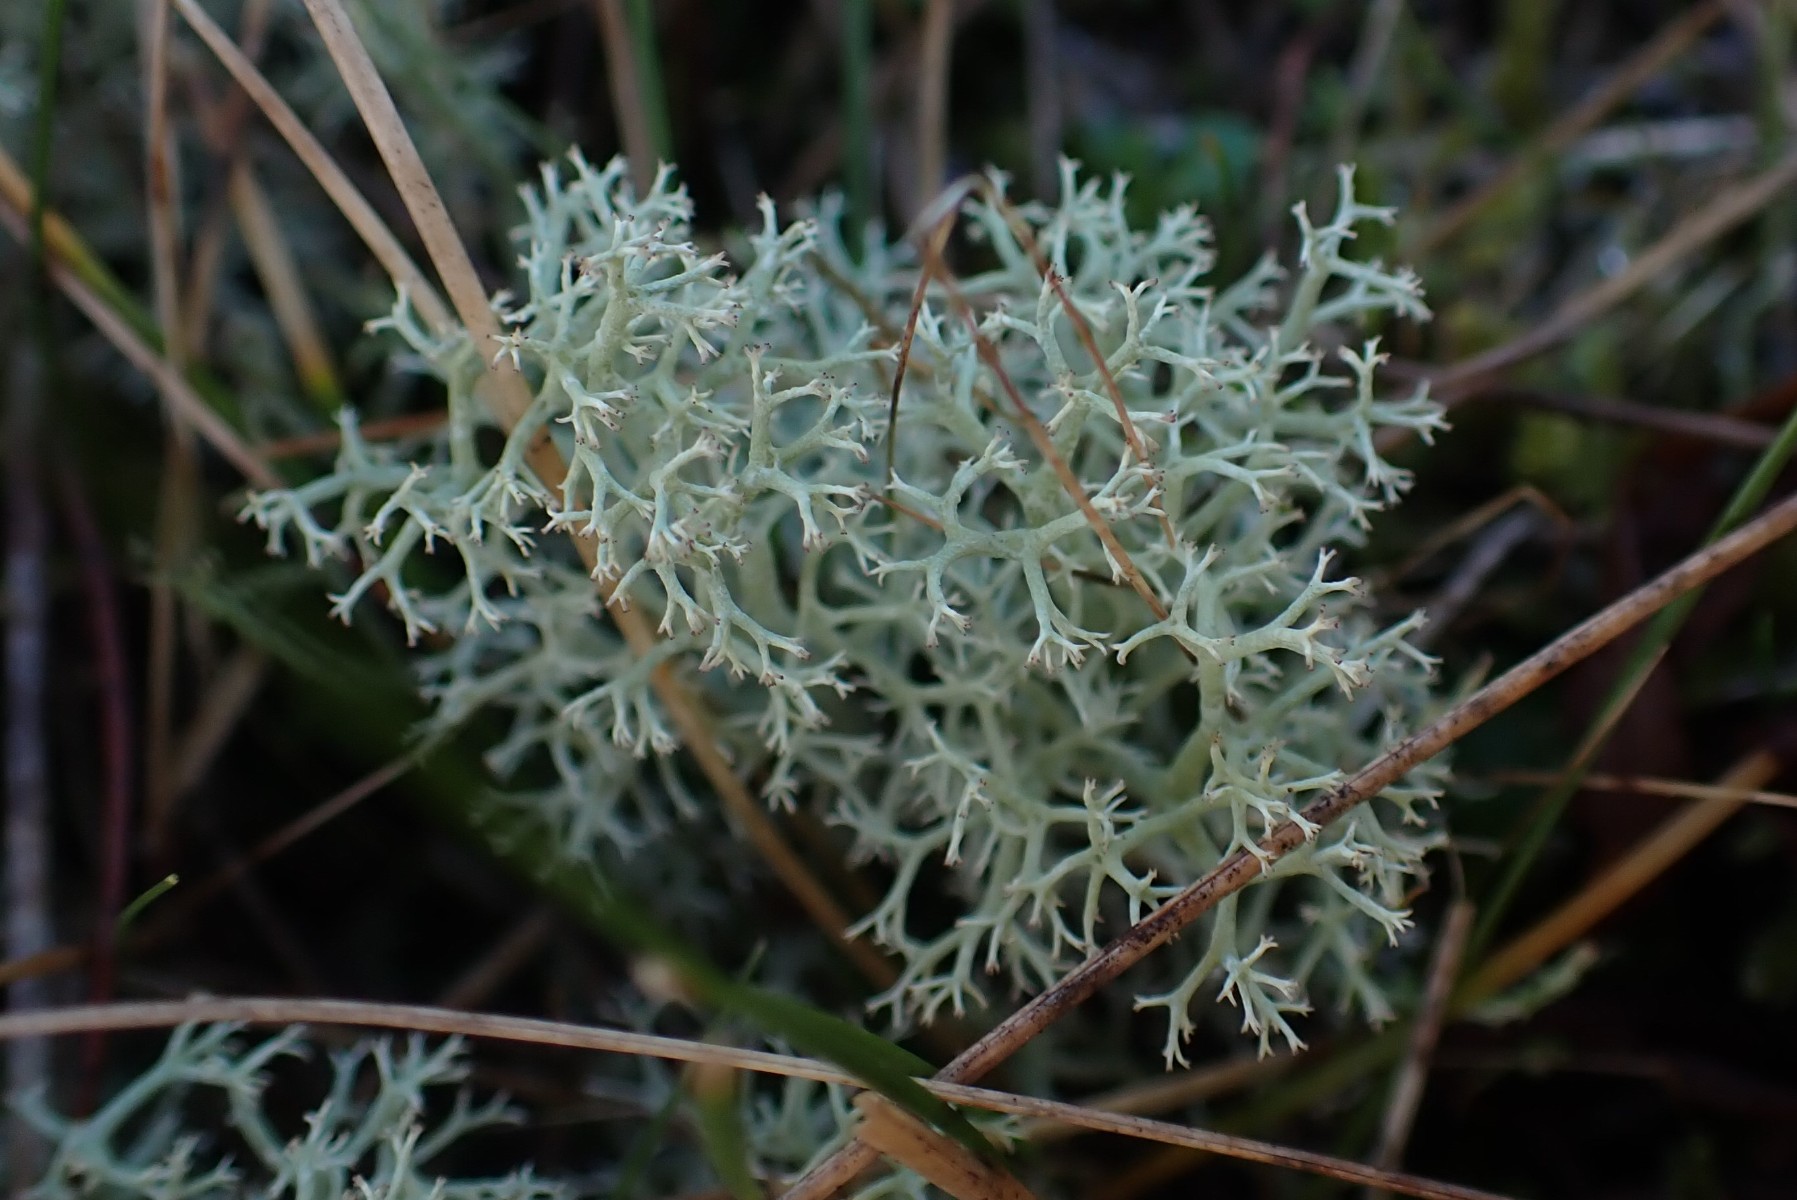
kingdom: Fungi
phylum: Ascomycota
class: Lecanoromycetes
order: Lecanorales
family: Cladoniaceae
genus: Cladonia
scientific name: Cladonia portentosa
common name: hede-rensdyrlav
